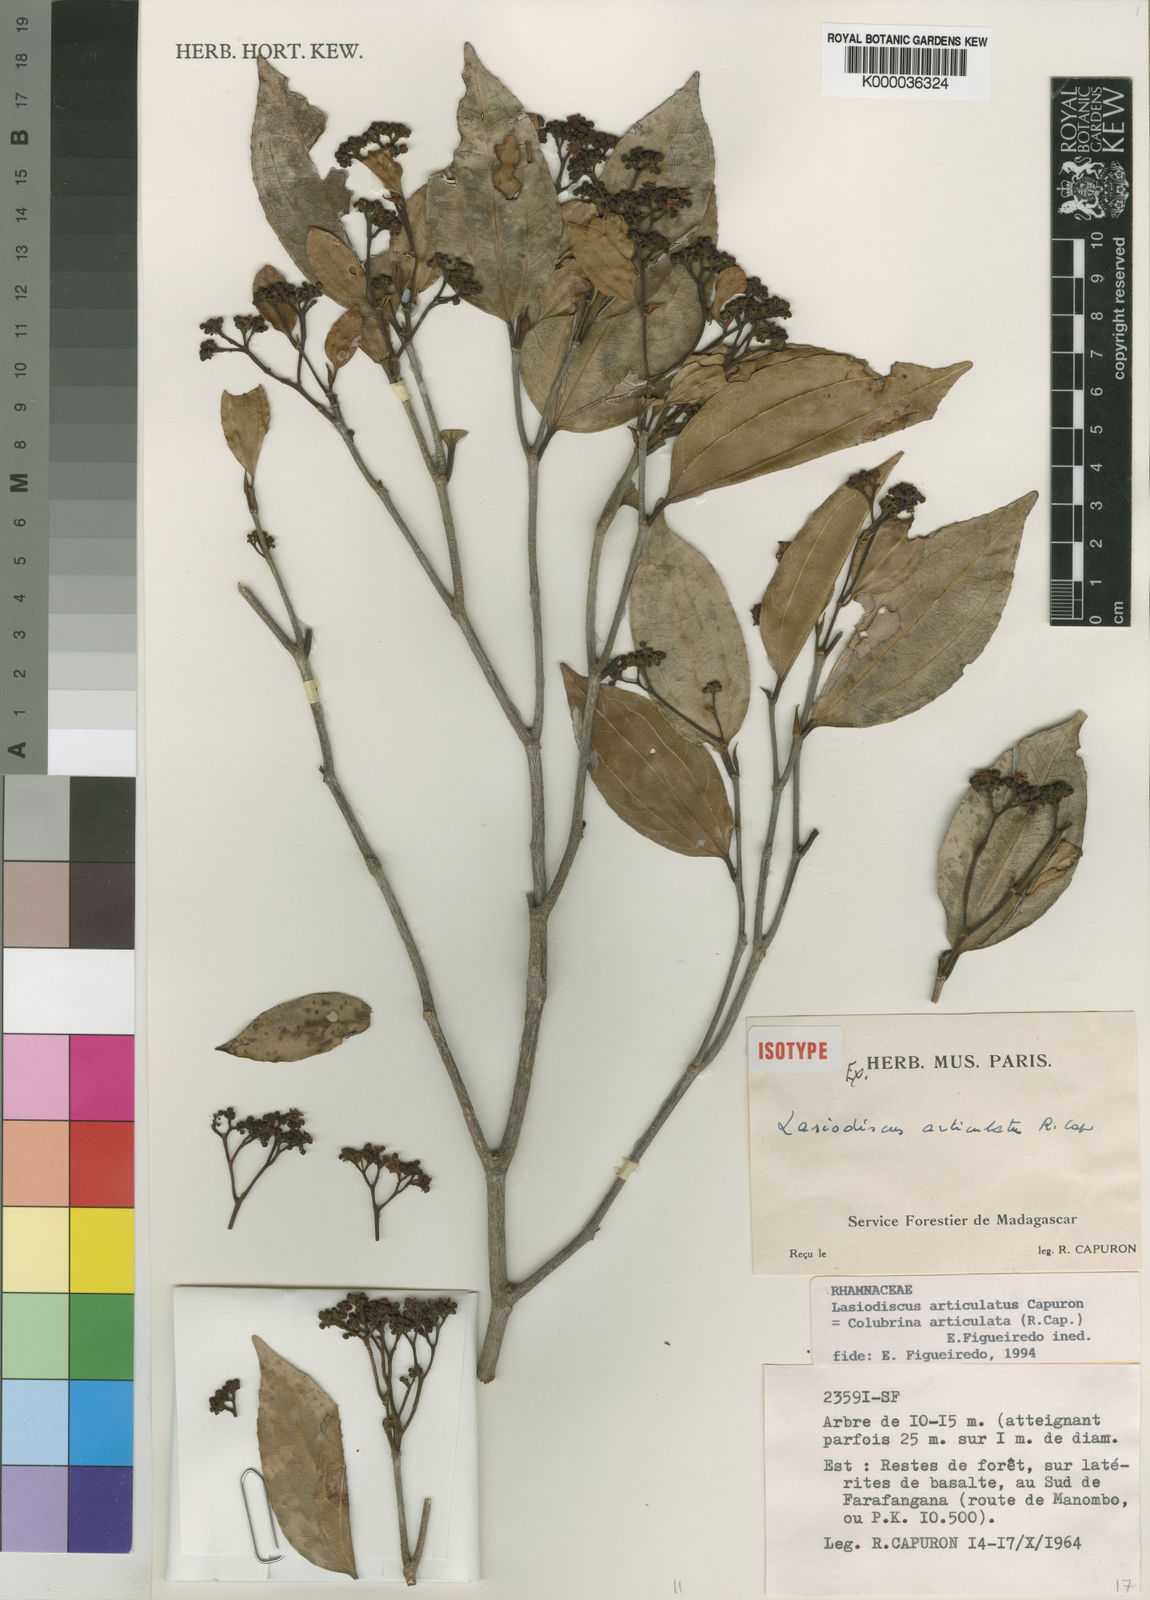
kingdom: Plantae
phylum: Tracheophyta
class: Magnoliopsida
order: Rosales
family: Rhamnaceae
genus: Colubrina
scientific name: Colubrina articulata
